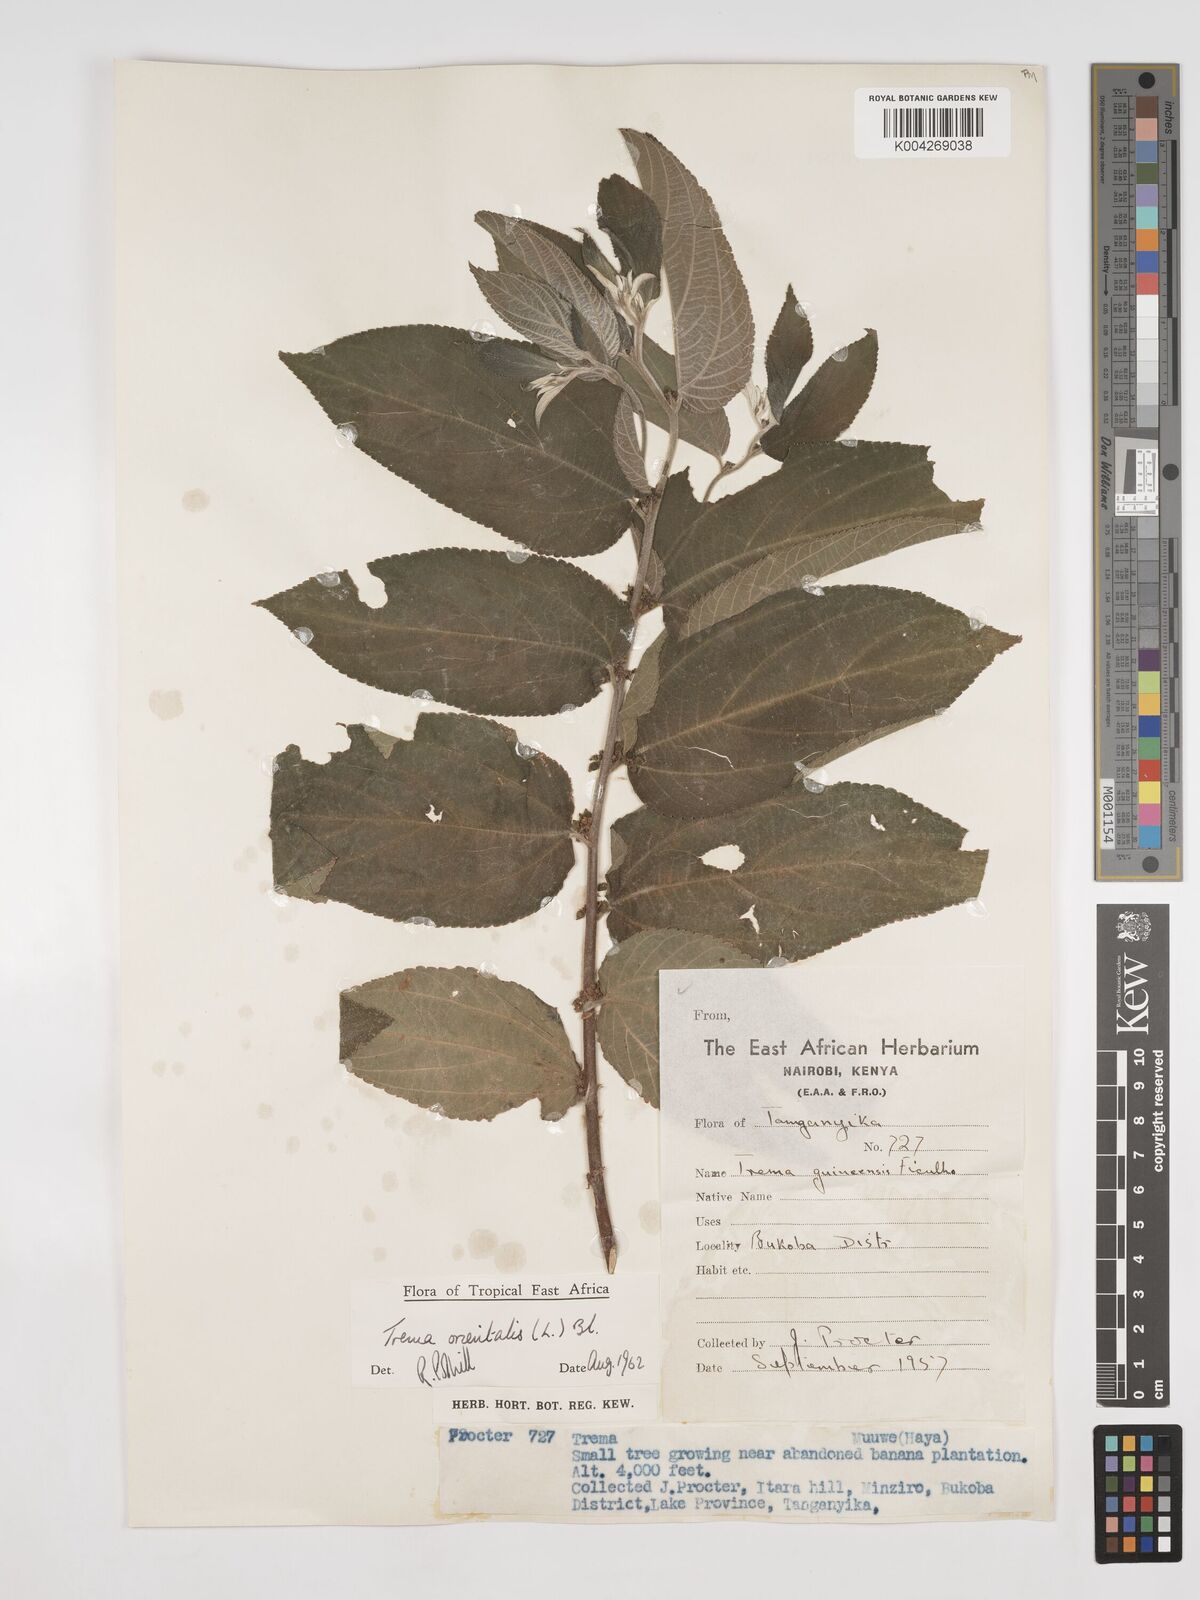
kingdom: Plantae
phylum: Tracheophyta
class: Magnoliopsida
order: Rosales
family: Cannabaceae
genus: Trema
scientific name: Trema orientale
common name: Indian charcoal tree
